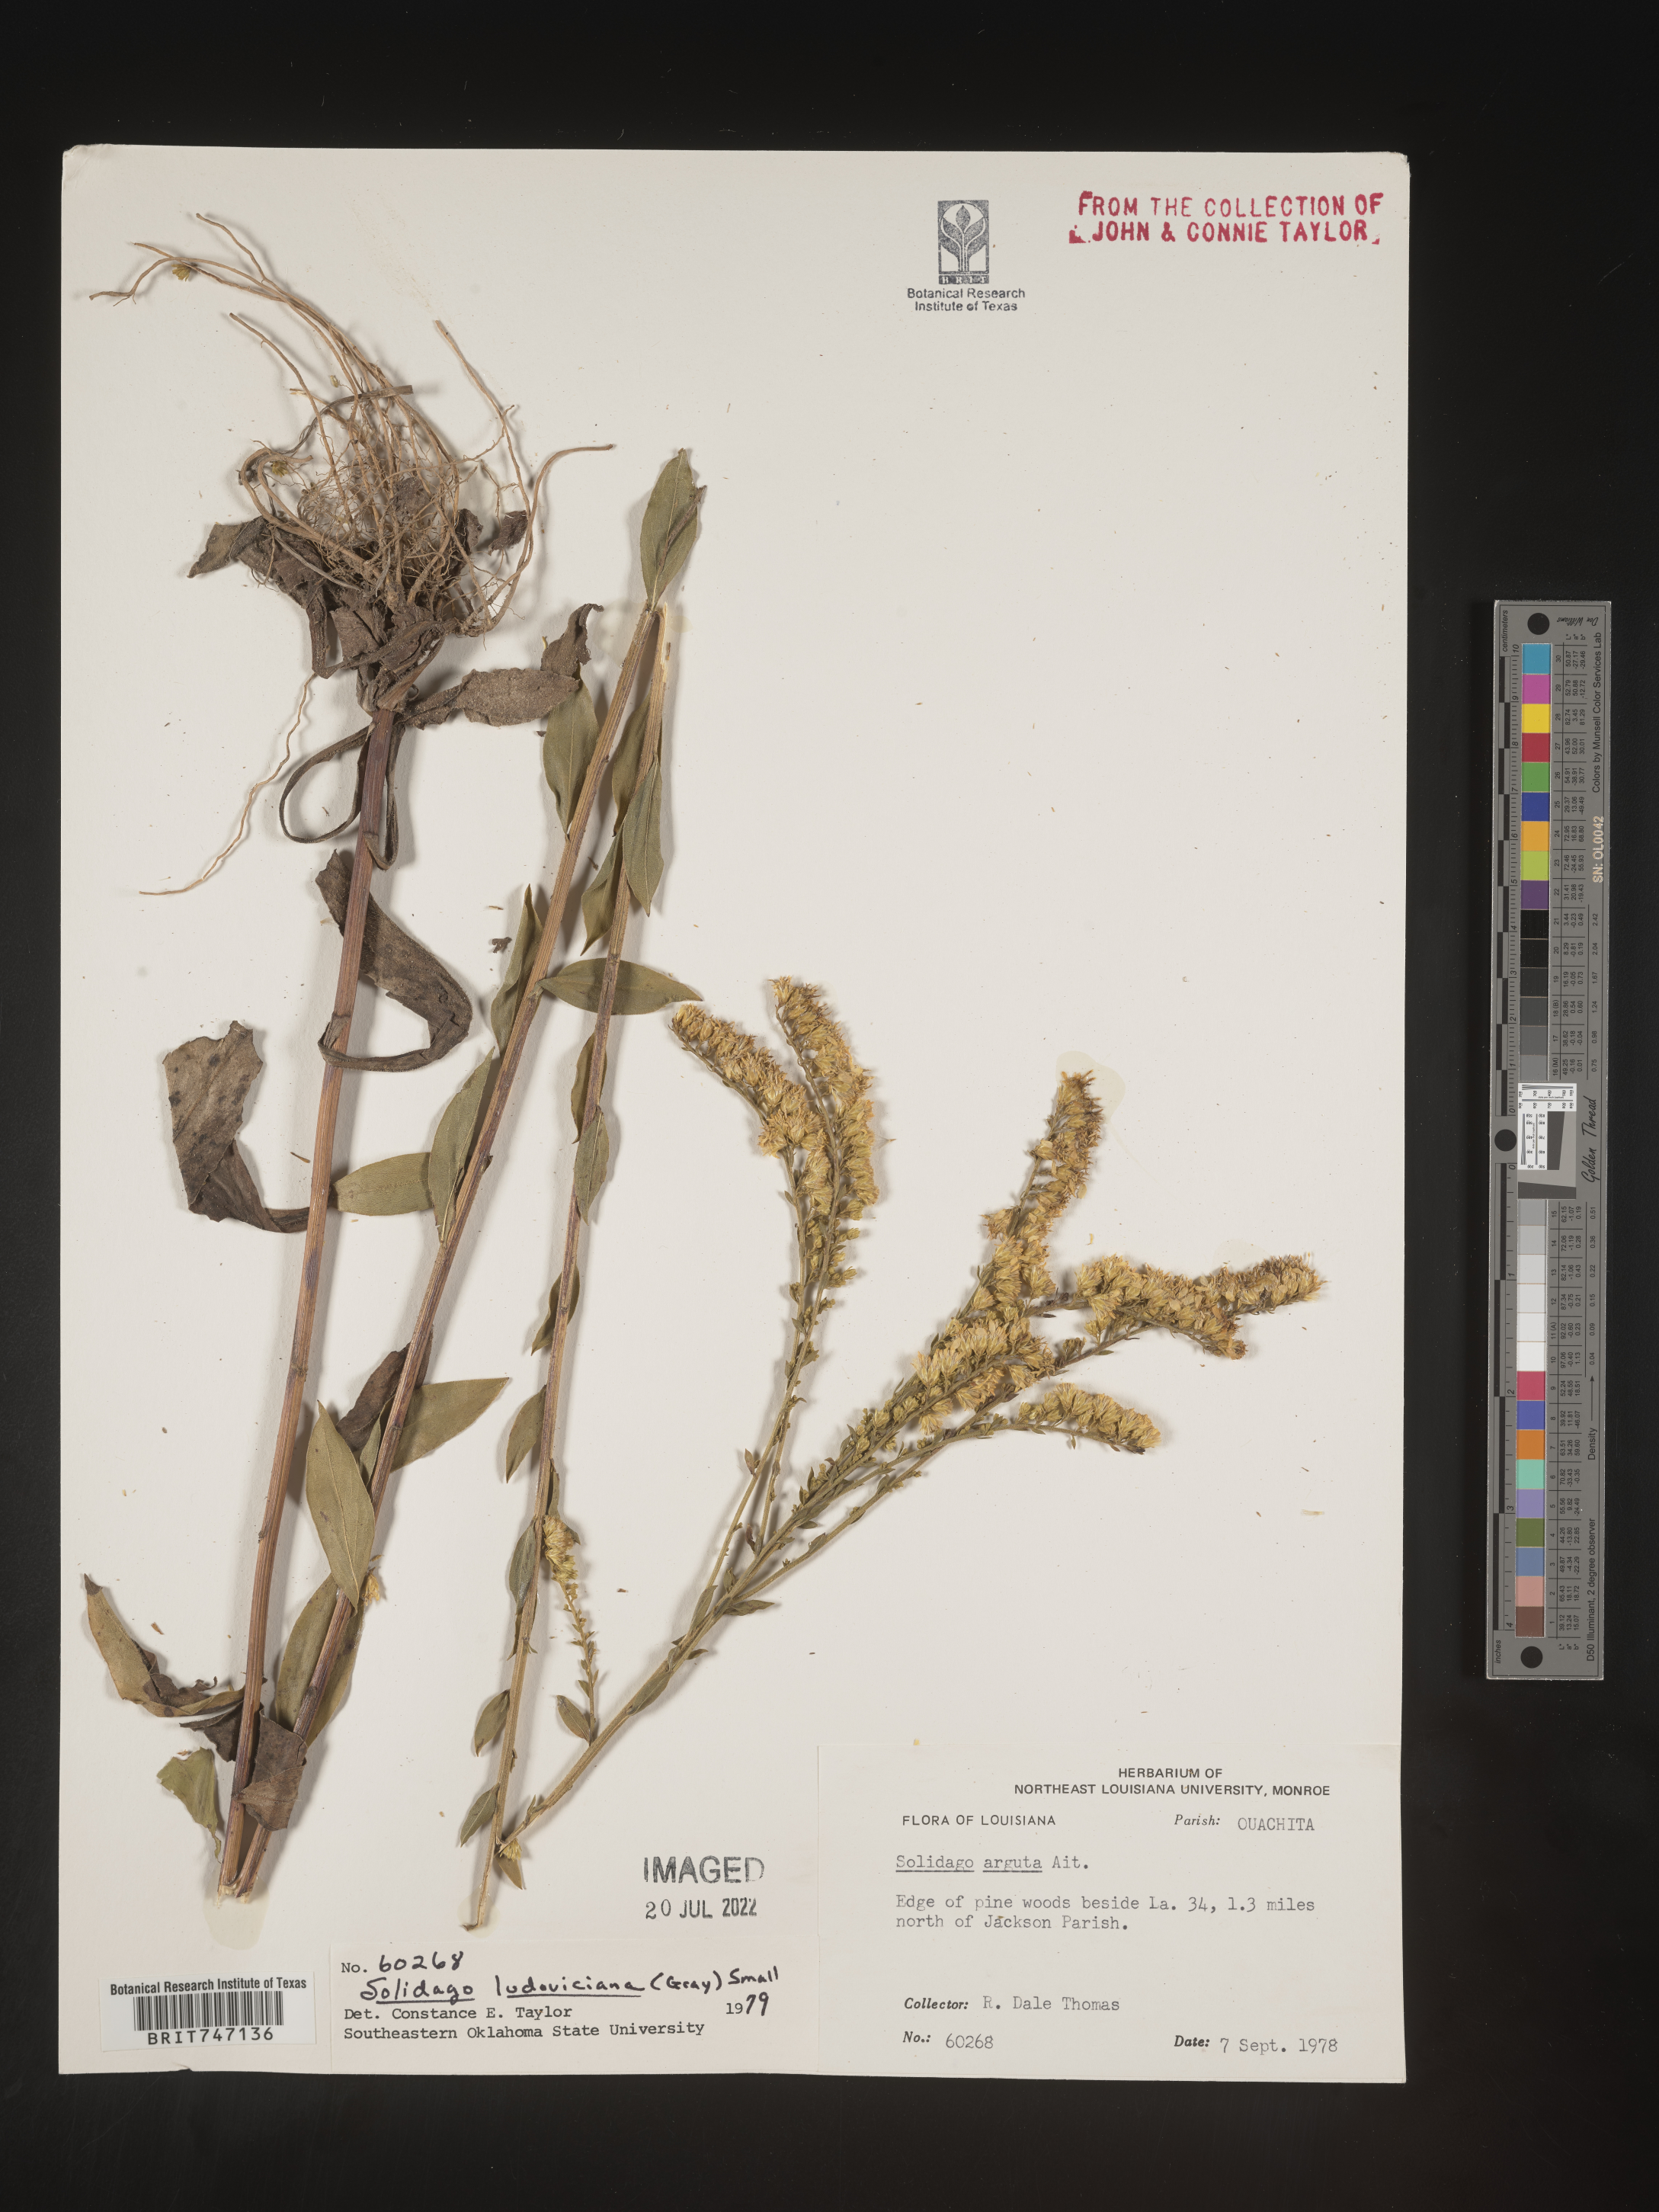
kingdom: Plantae
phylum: Tracheophyta
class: Magnoliopsida
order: Asterales
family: Asteraceae
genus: Solidago
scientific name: Solidago ludoviciana
